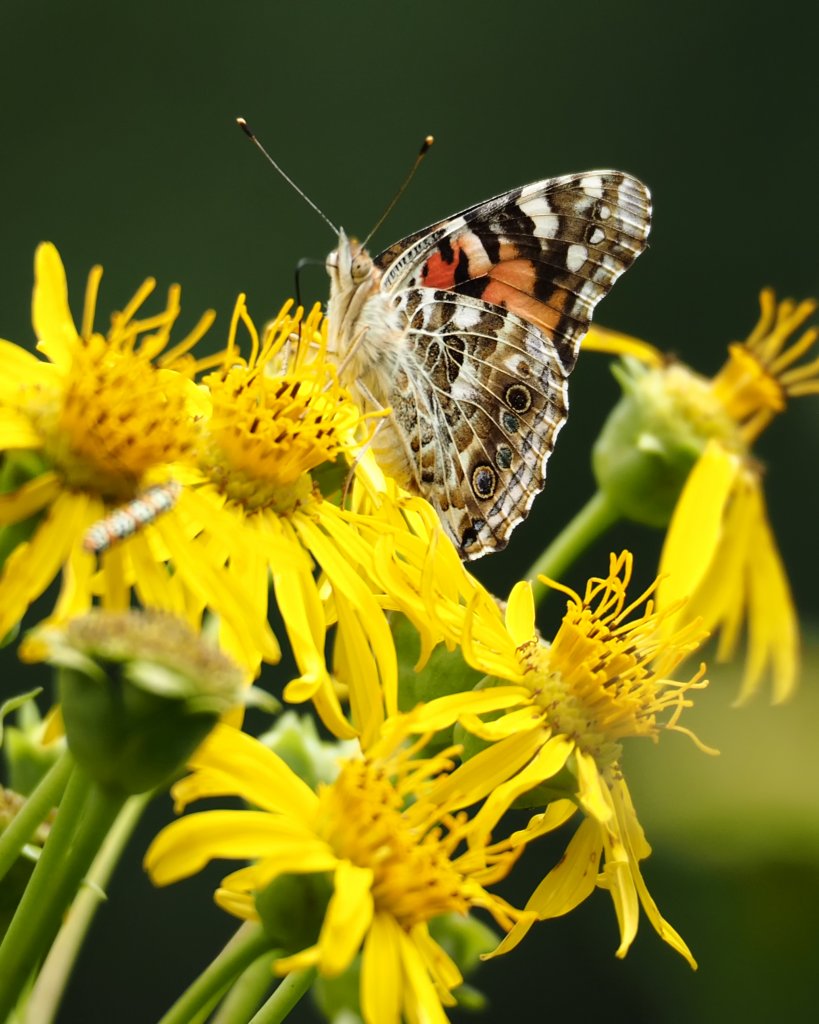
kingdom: Animalia
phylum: Arthropoda
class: Insecta
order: Lepidoptera
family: Nymphalidae
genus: Vanessa
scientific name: Vanessa cardui
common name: Painted Lady
